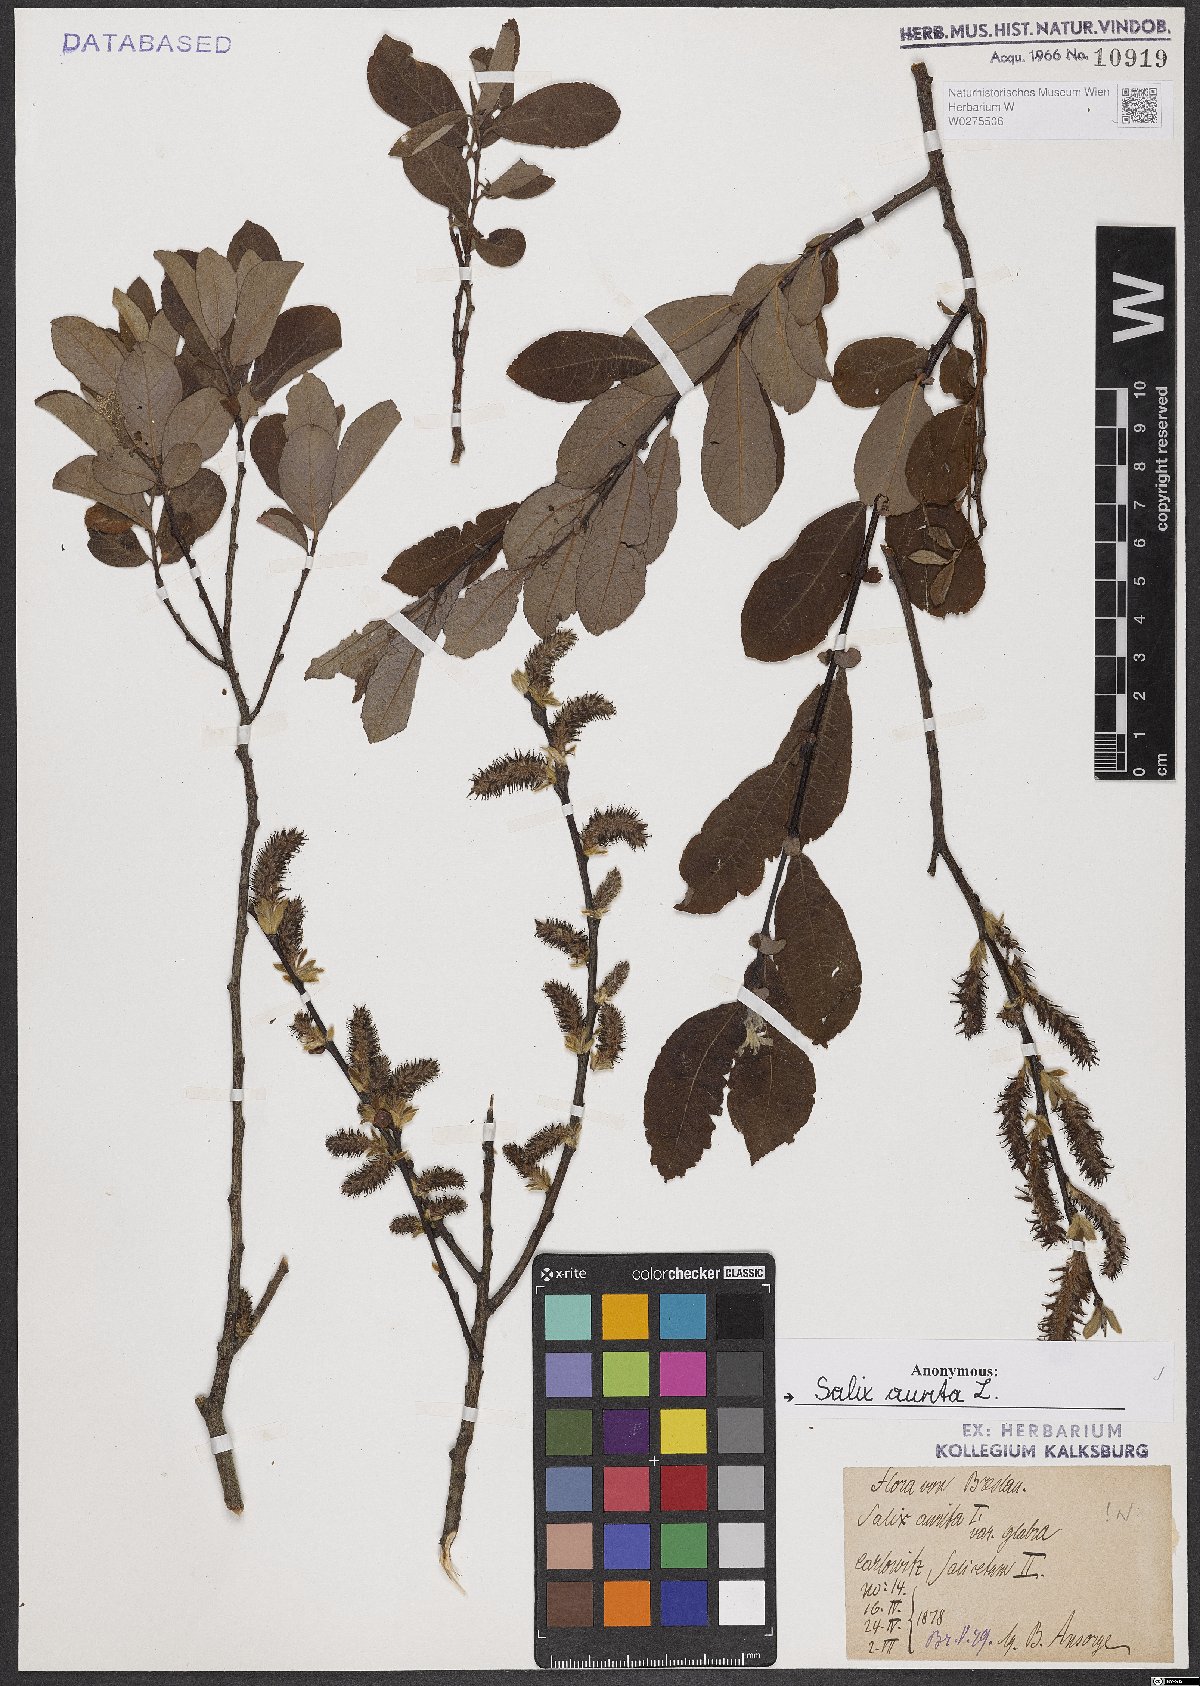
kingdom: Plantae
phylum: Tracheophyta
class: Magnoliopsida
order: Malpighiales
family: Salicaceae
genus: Salix
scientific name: Salix aurita
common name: Eared willow
